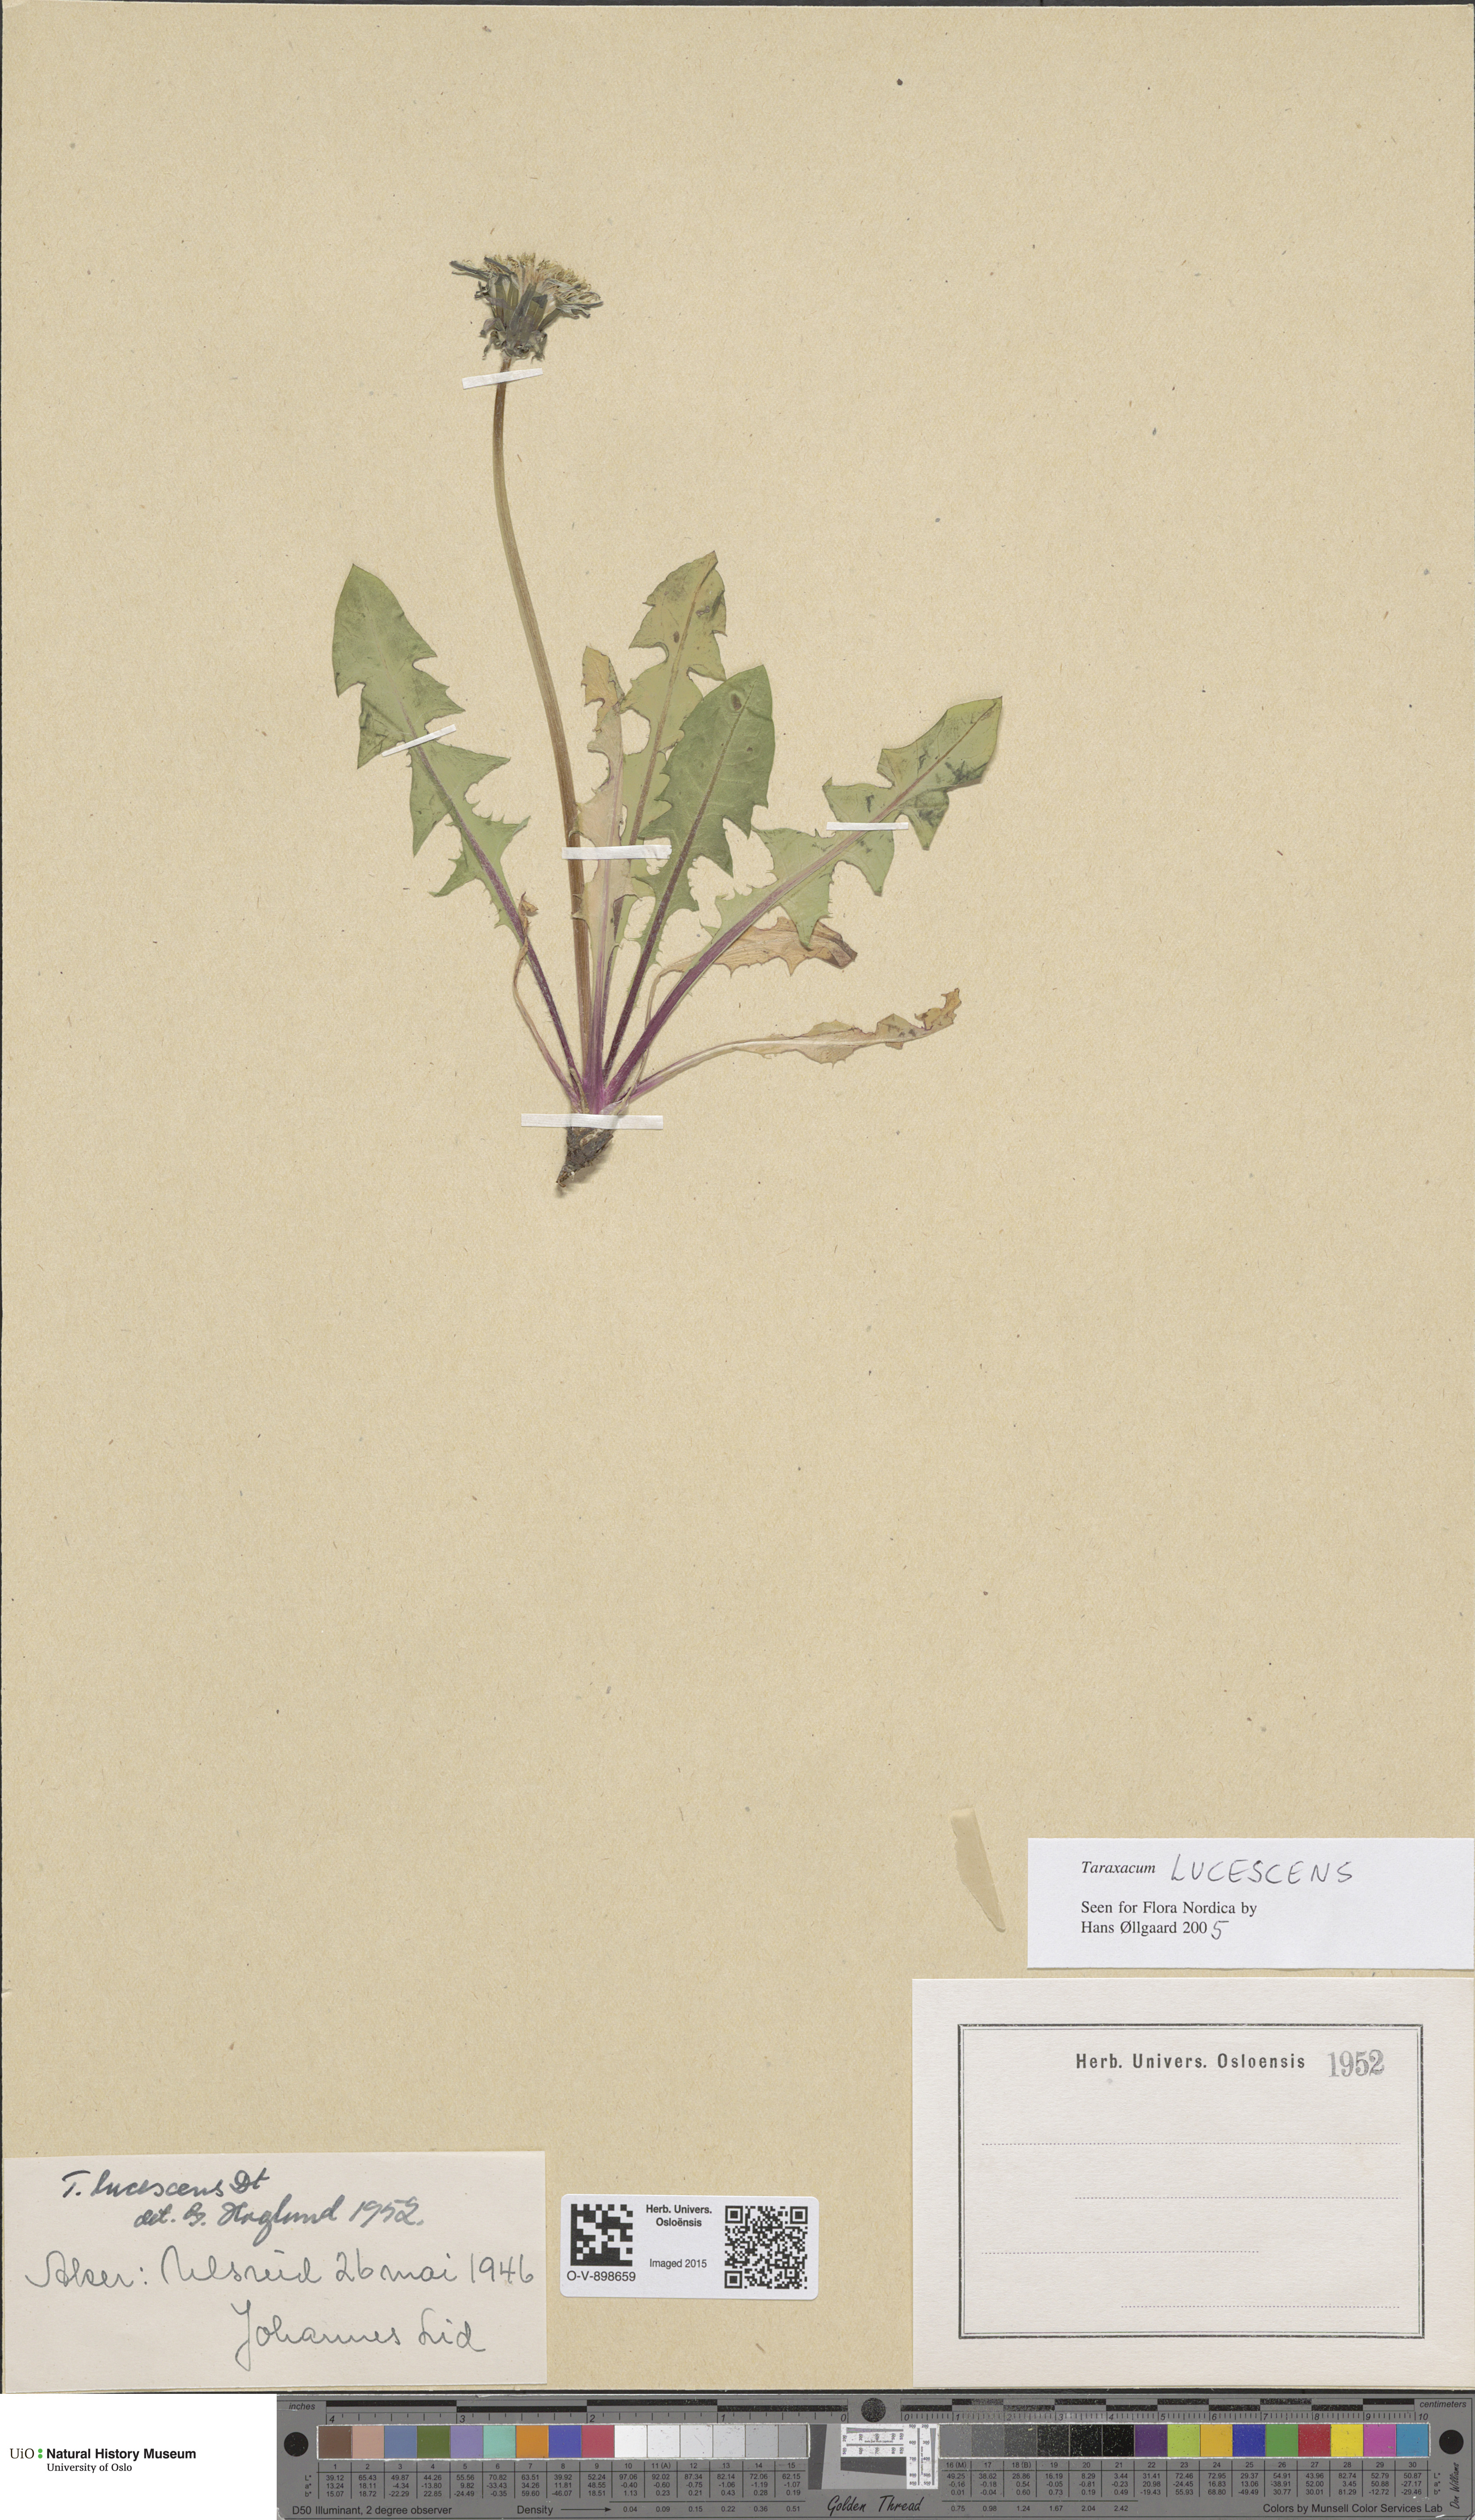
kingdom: Plantae
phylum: Tracheophyta
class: Magnoliopsida
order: Asterales
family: Asteraceae
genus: Taraxacum
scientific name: Taraxacum lucescens
